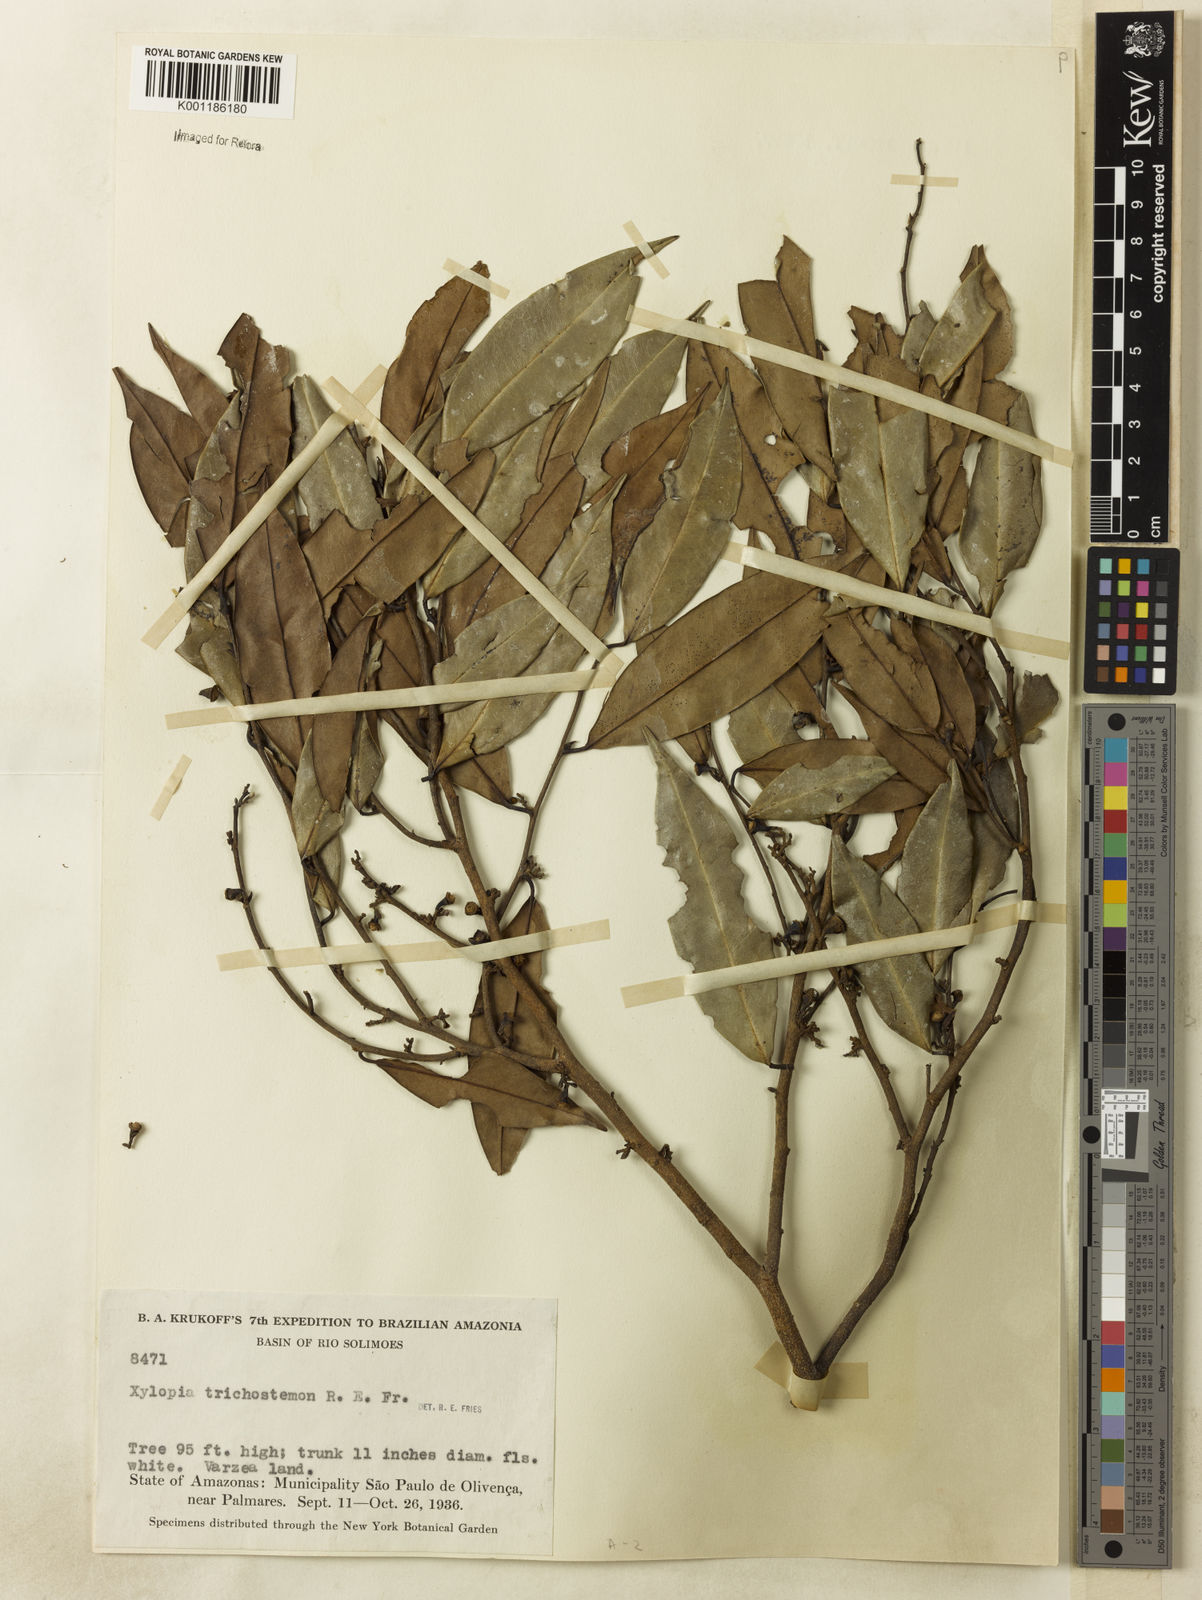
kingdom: Plantae
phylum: Tracheophyta
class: Magnoliopsida
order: Magnoliales
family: Annonaceae
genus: Xylopia
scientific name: Xylopia trichostemon
